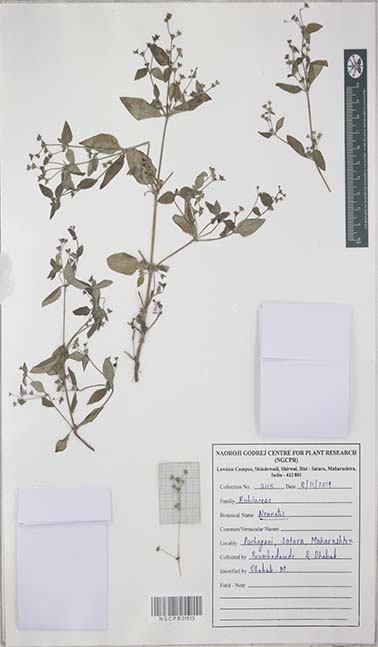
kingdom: Plantae
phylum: Tracheophyta
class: Magnoliopsida
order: Gentianales
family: Rubiaceae
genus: Neanotis
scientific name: Neanotis
